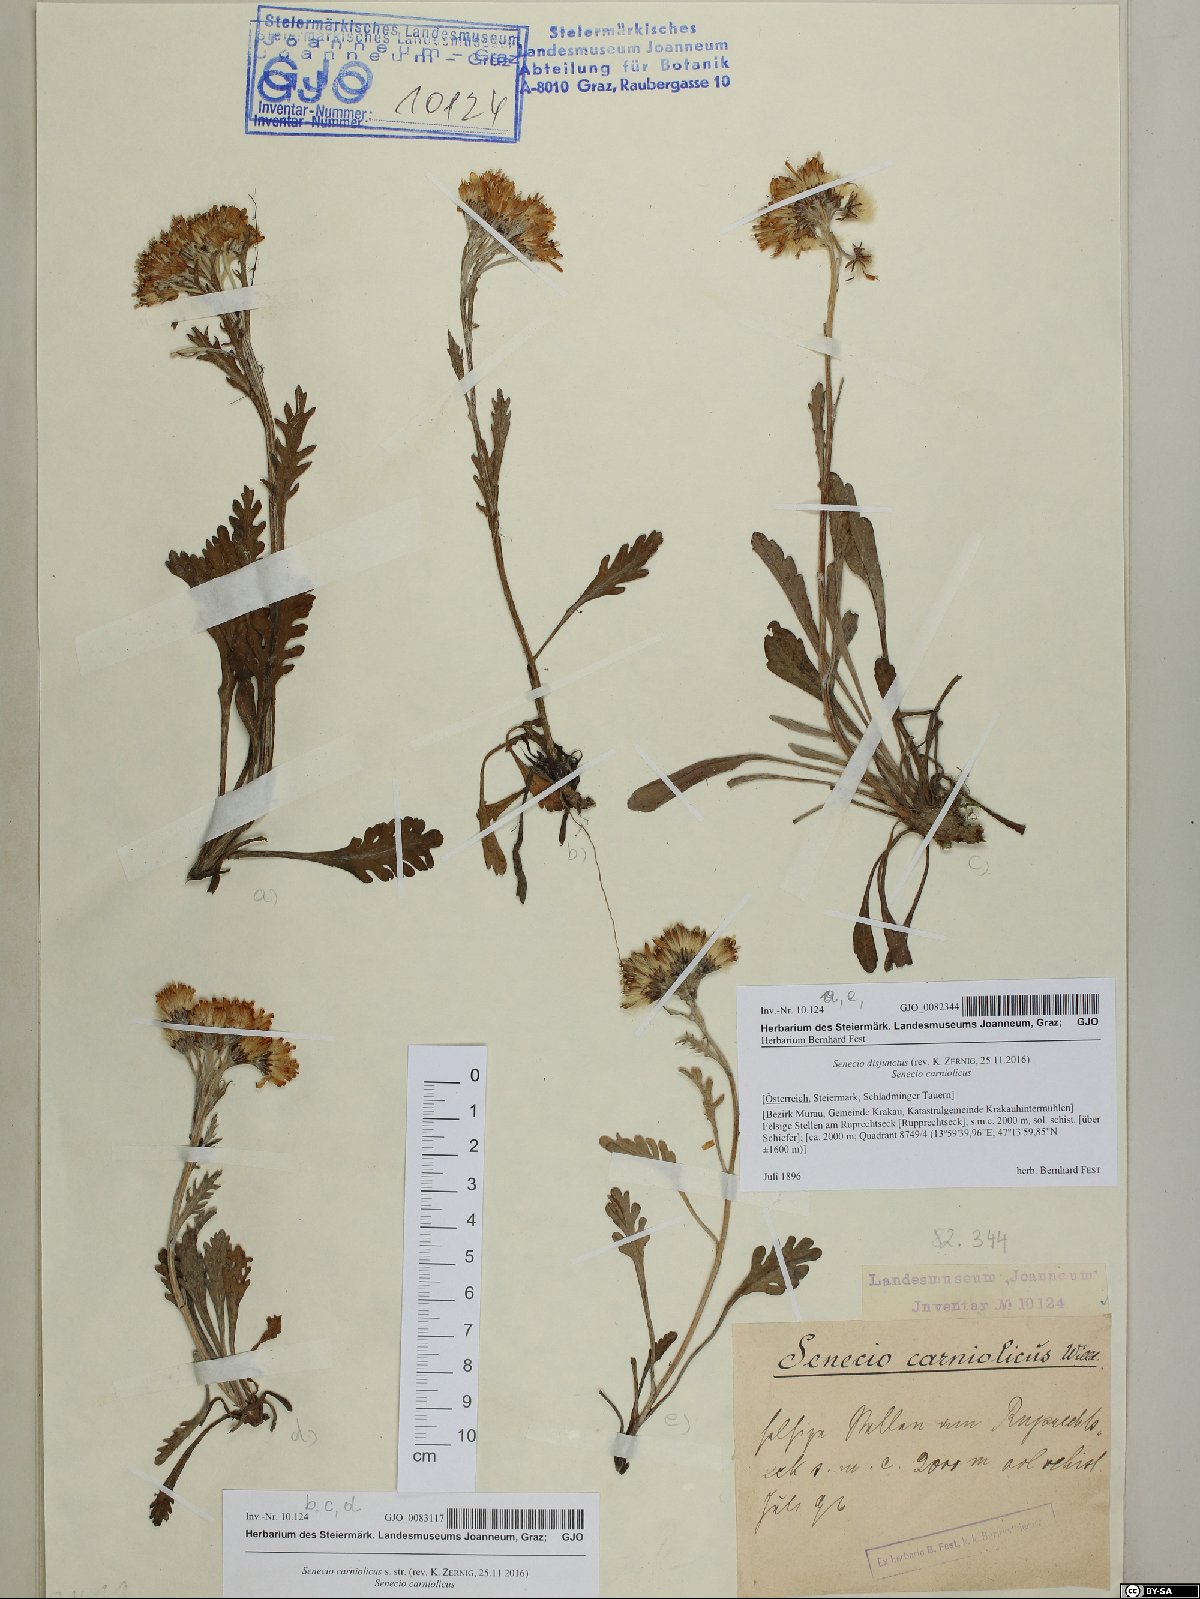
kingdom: Plantae
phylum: Tracheophyta
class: Magnoliopsida
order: Asterales
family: Asteraceae
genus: Jacobaea
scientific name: Jacobaea carniolica
